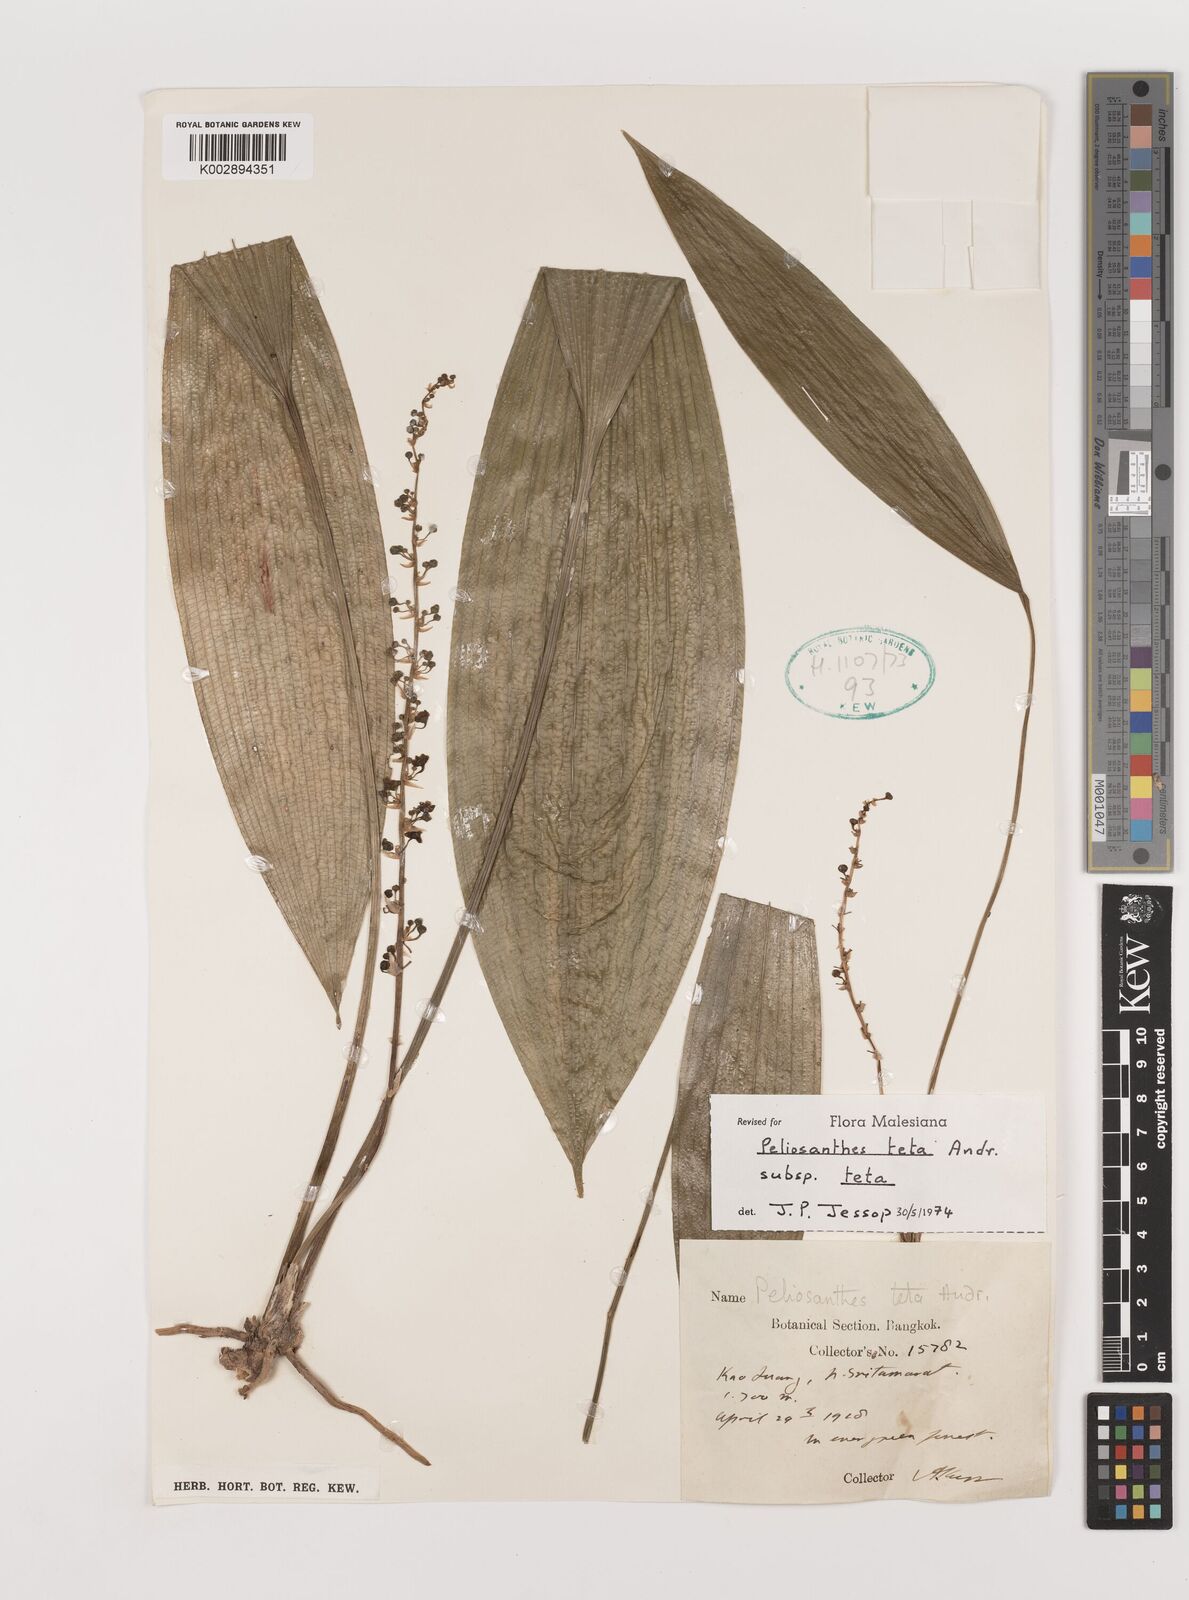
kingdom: Plantae
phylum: Tracheophyta
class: Liliopsida
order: Asparagales
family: Asparagaceae
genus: Peliosanthes
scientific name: Peliosanthes teta
